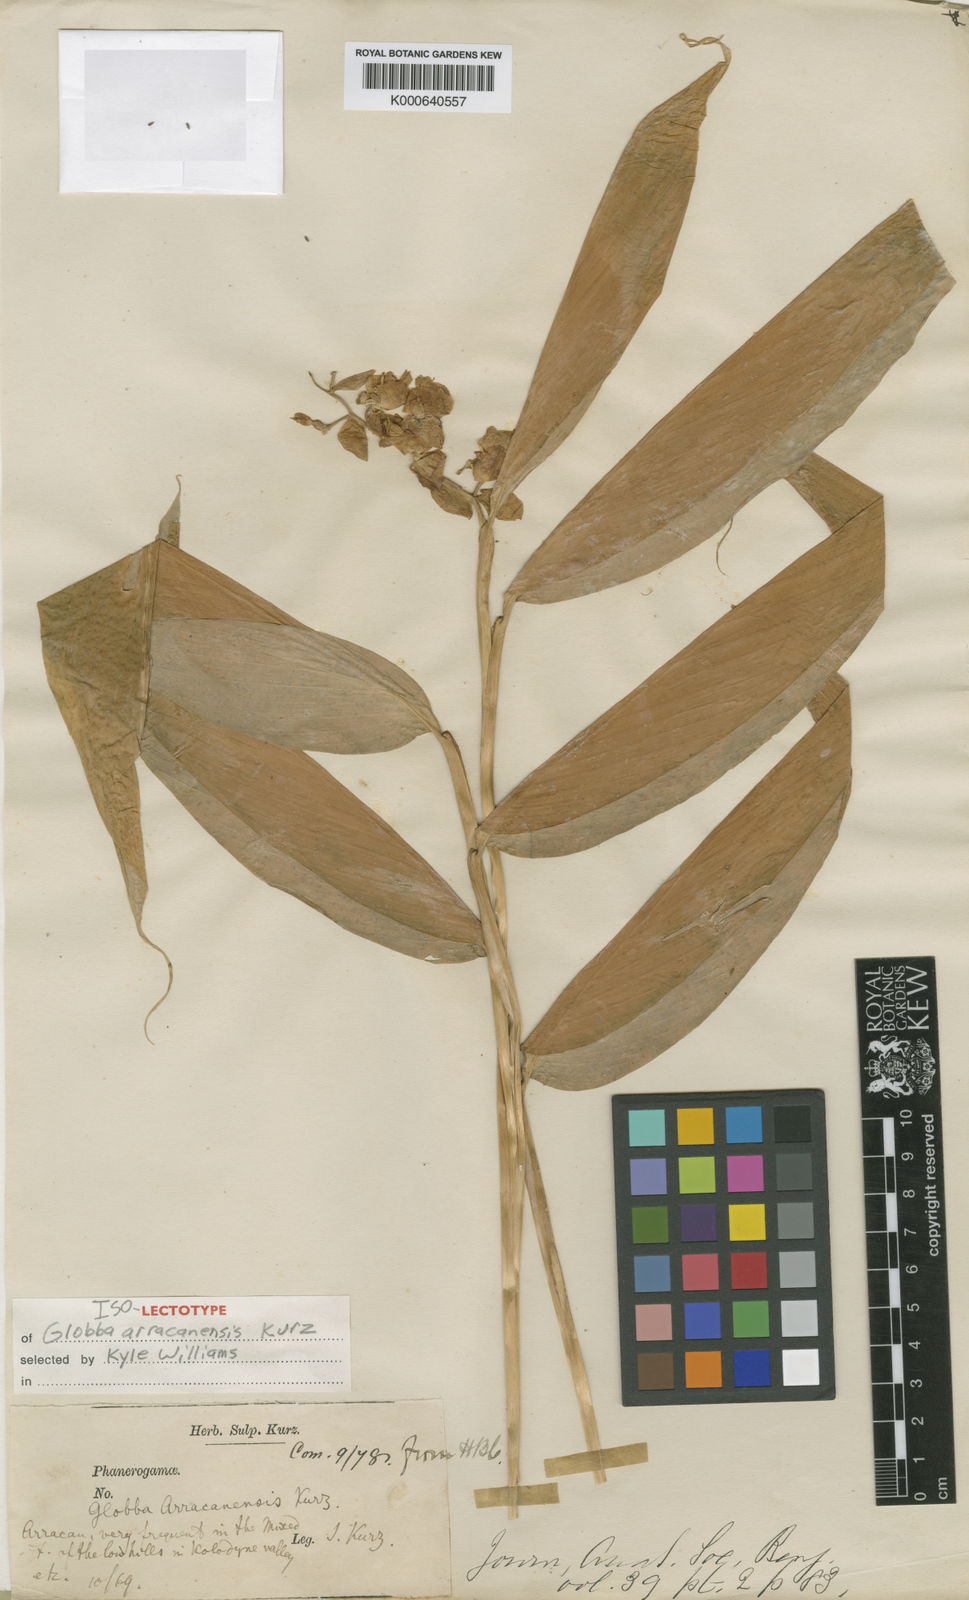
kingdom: Plantae
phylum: Tracheophyta
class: Liliopsida
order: Zingiberales
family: Zingiberaceae
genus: Globba
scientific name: Globba arracanensis
